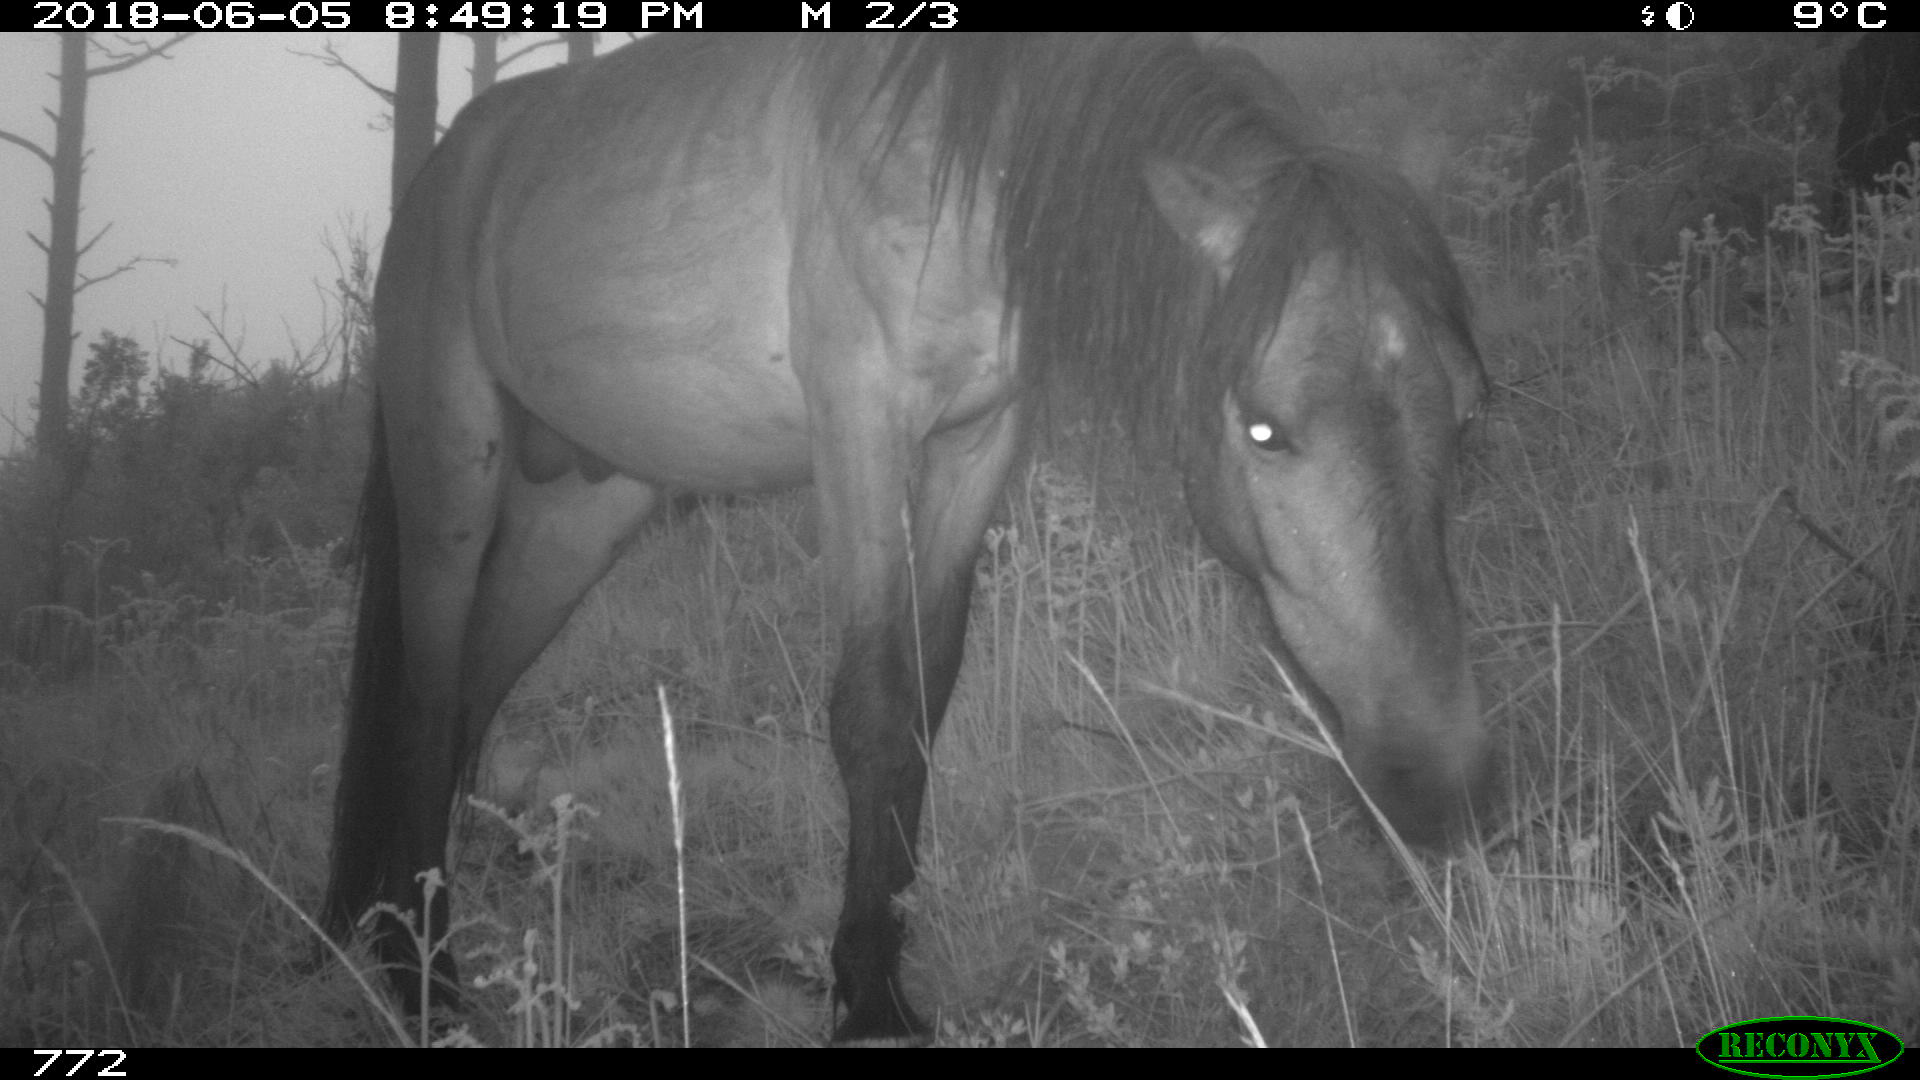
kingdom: Animalia
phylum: Chordata
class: Mammalia
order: Perissodactyla
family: Equidae
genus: Equus
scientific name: Equus caballus
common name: Horse
